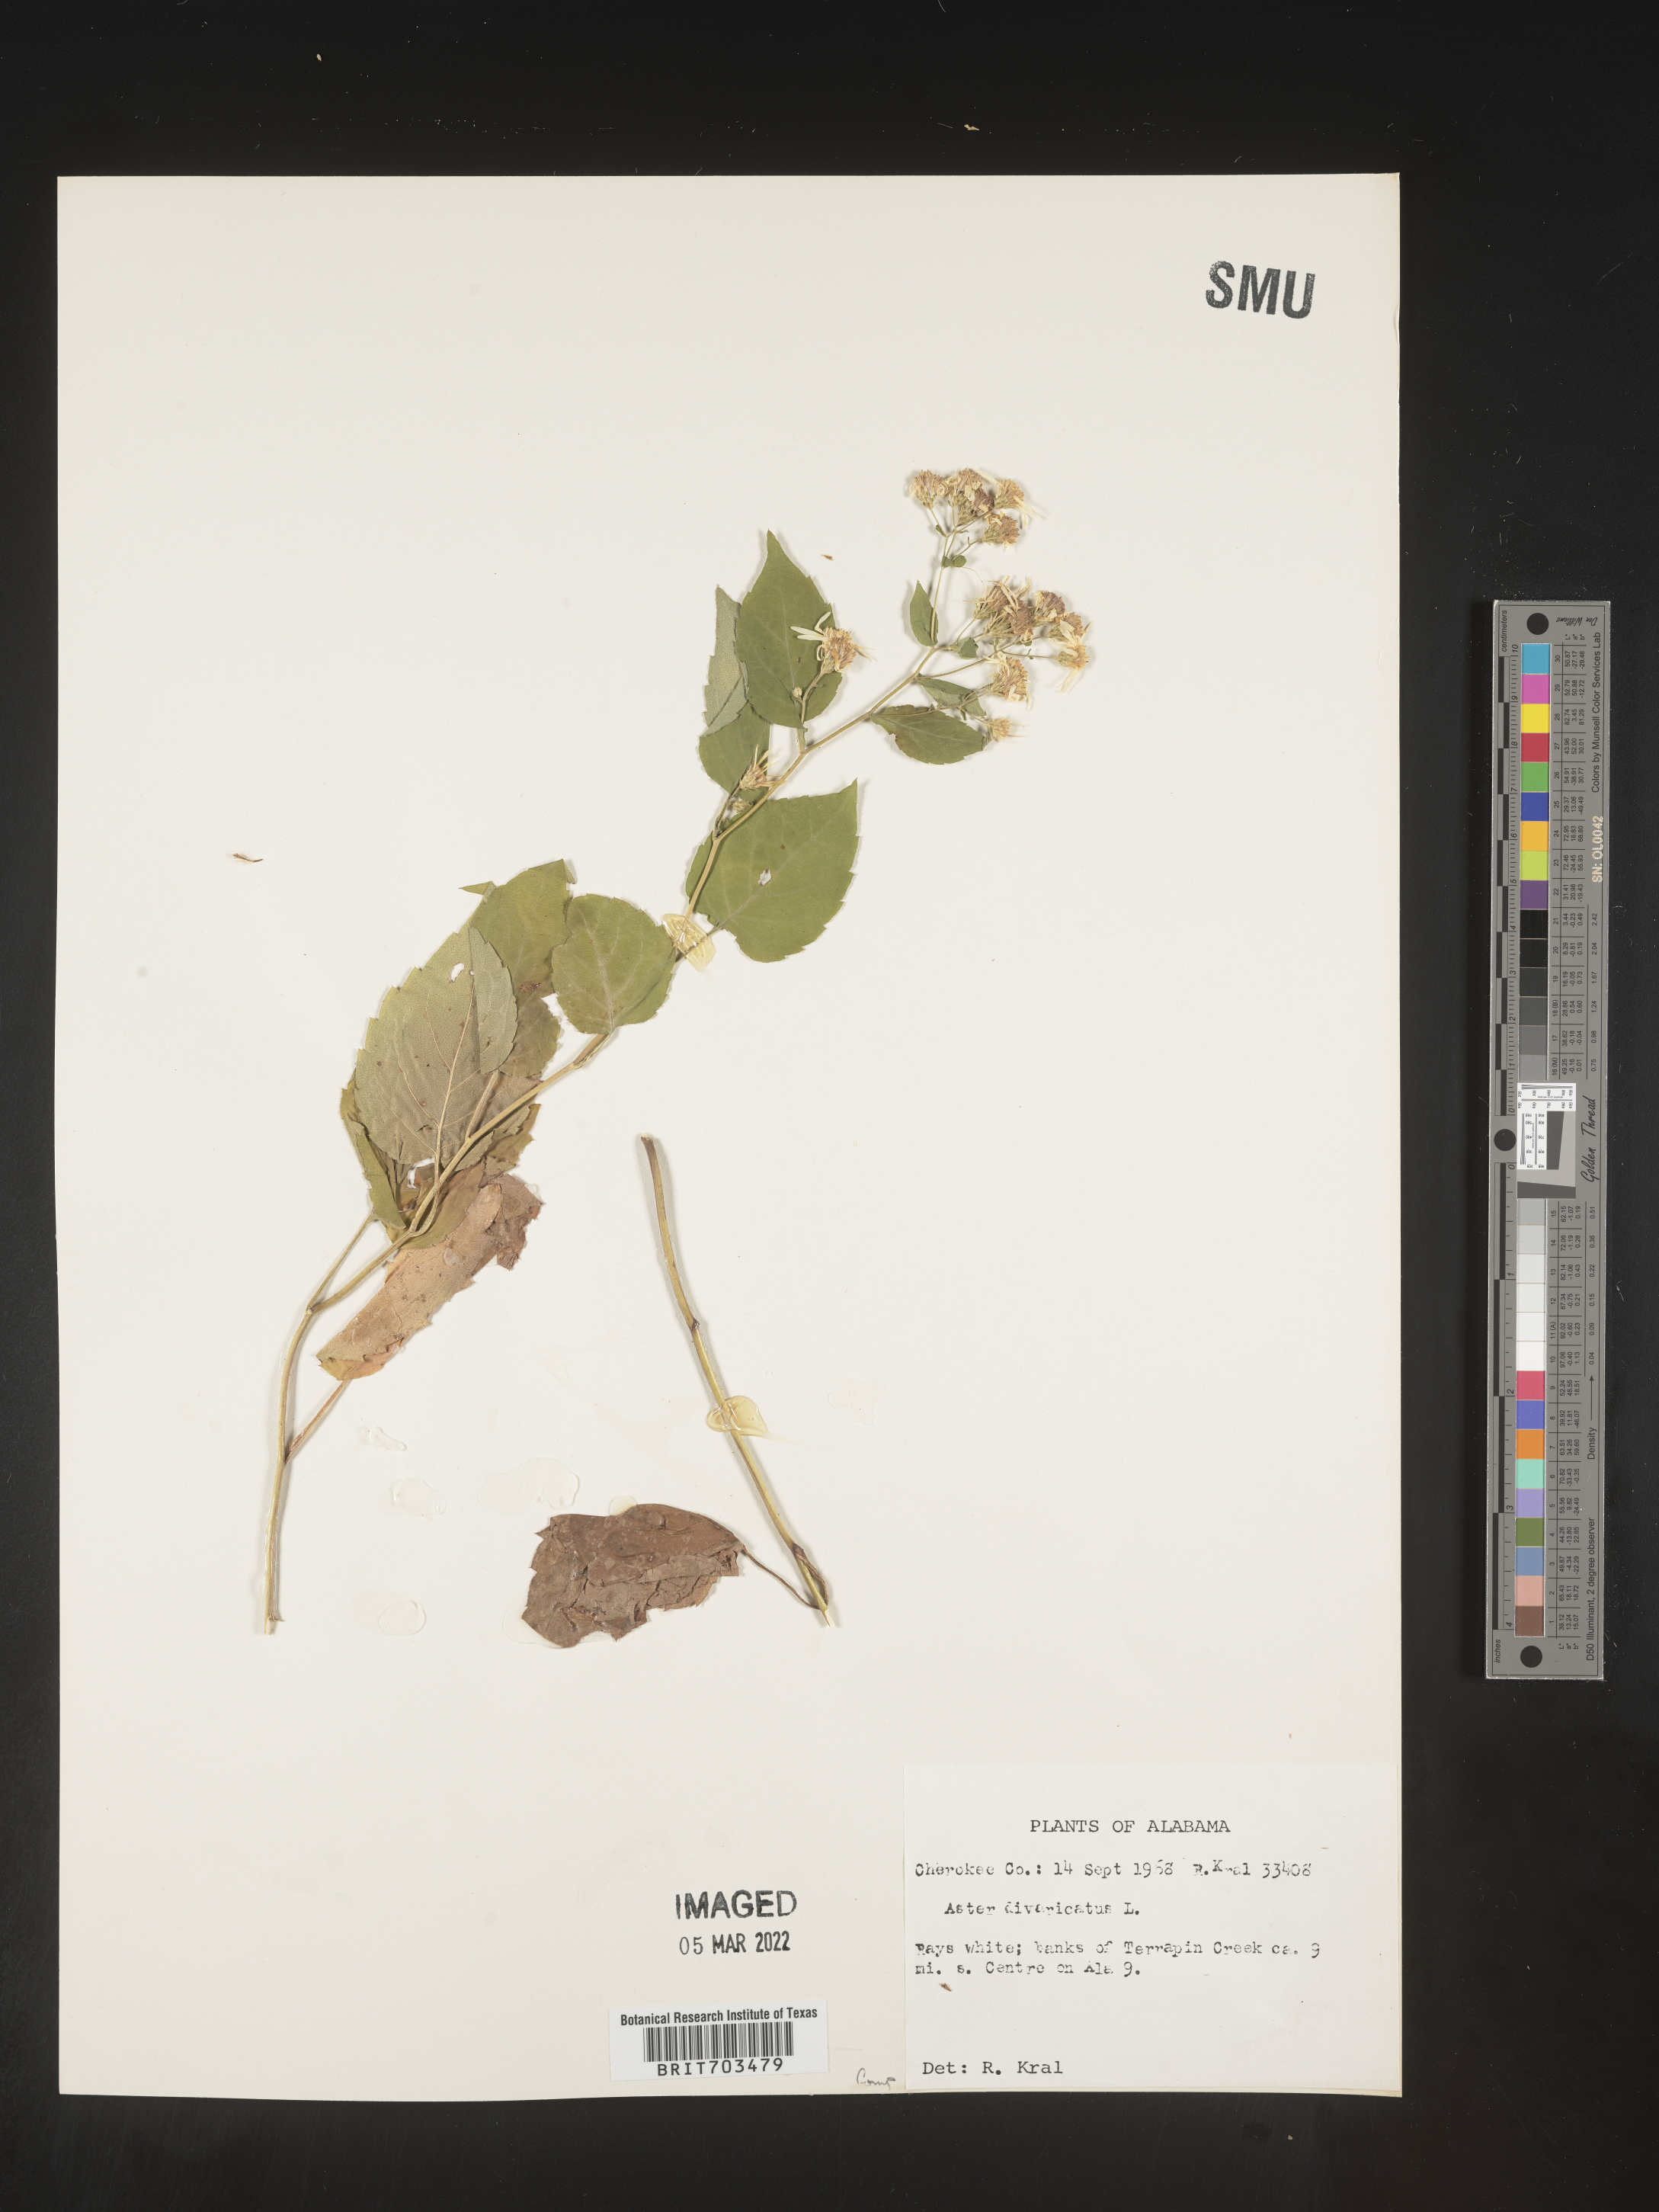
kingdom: Plantae
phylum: Tracheophyta
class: Magnoliopsida
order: Asterales
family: Asteraceae
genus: Eurybia
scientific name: Eurybia divaricata
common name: White wood aster
